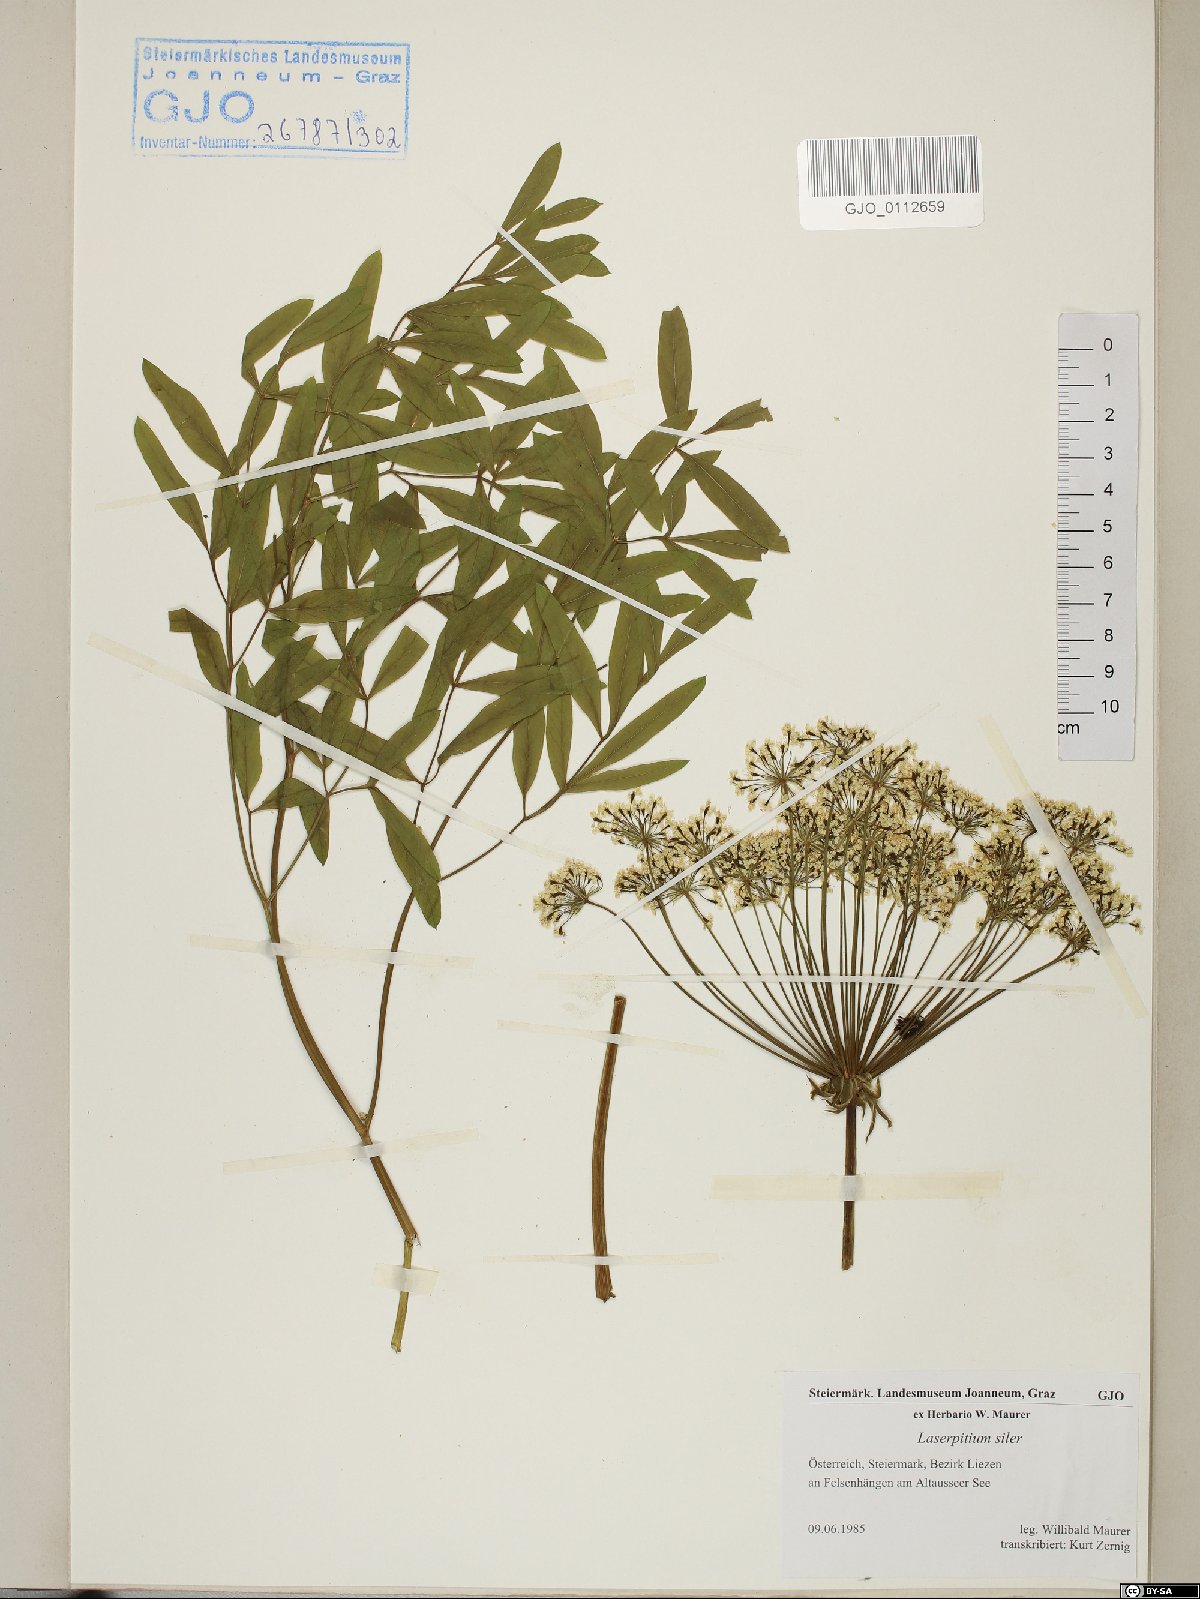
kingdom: Plantae
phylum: Tracheophyta
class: Magnoliopsida
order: Apiales
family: Apiaceae
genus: Siler
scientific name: Siler montanum
